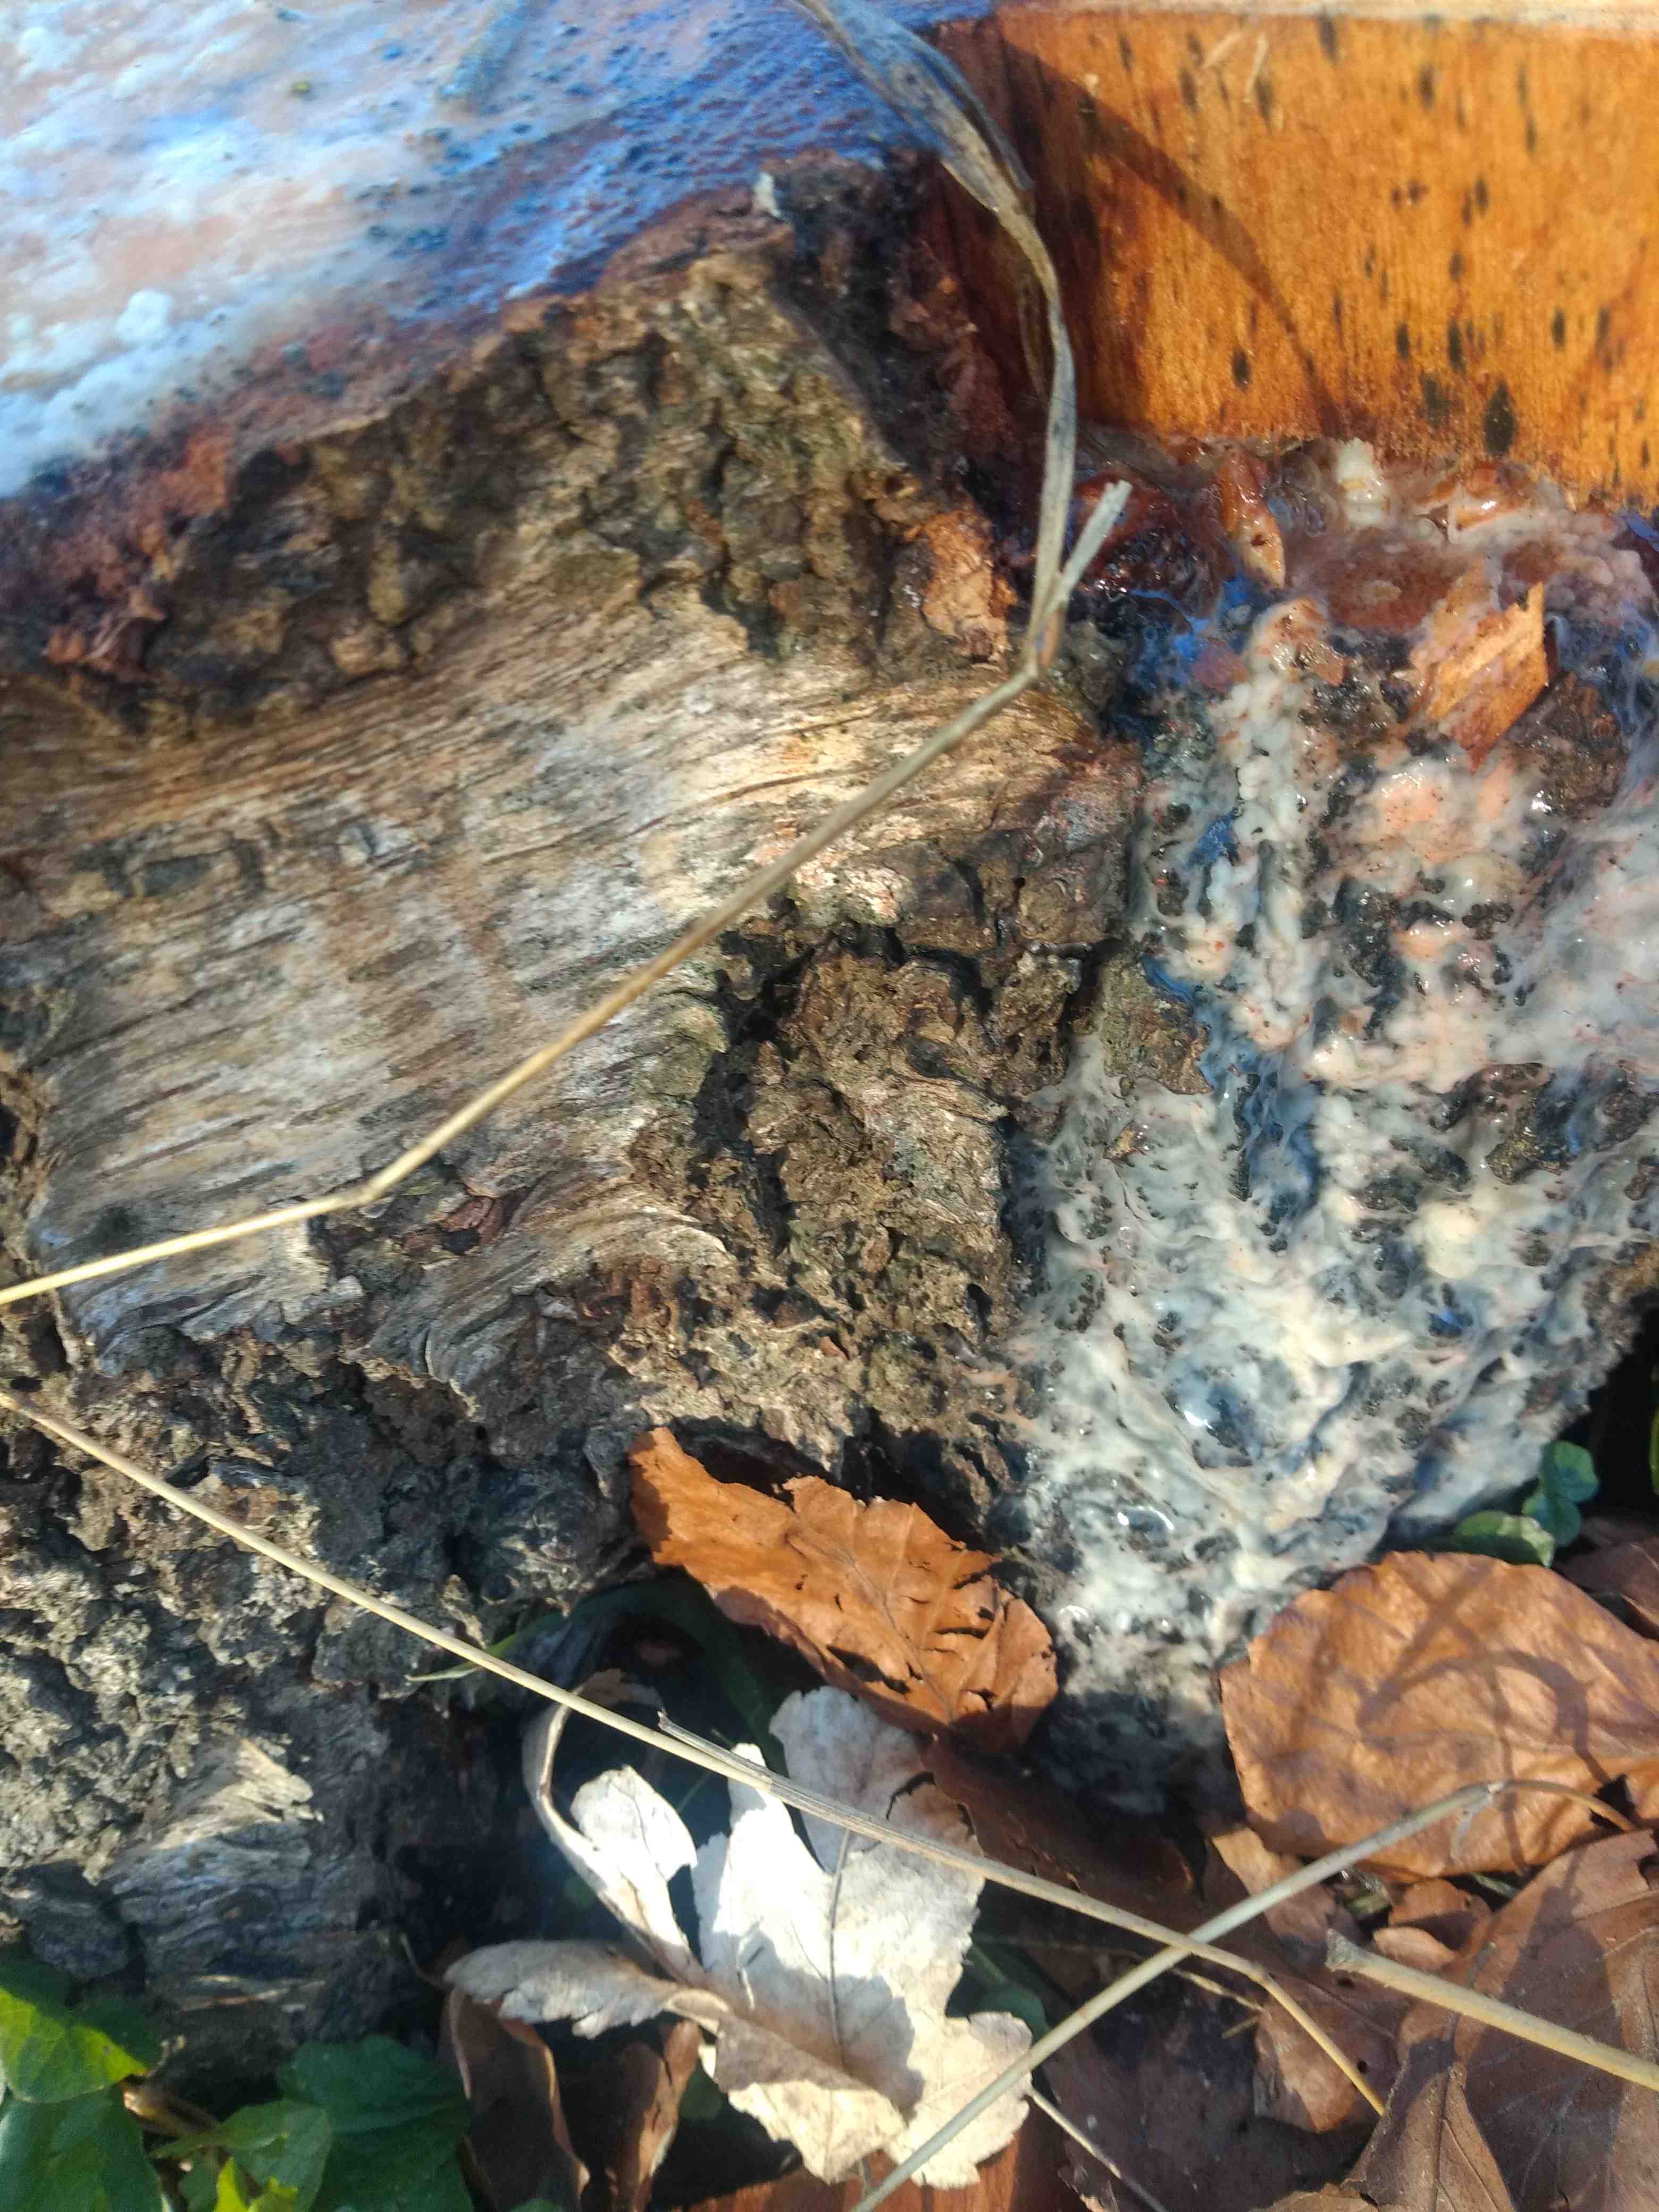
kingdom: Fungi
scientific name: Fungi
